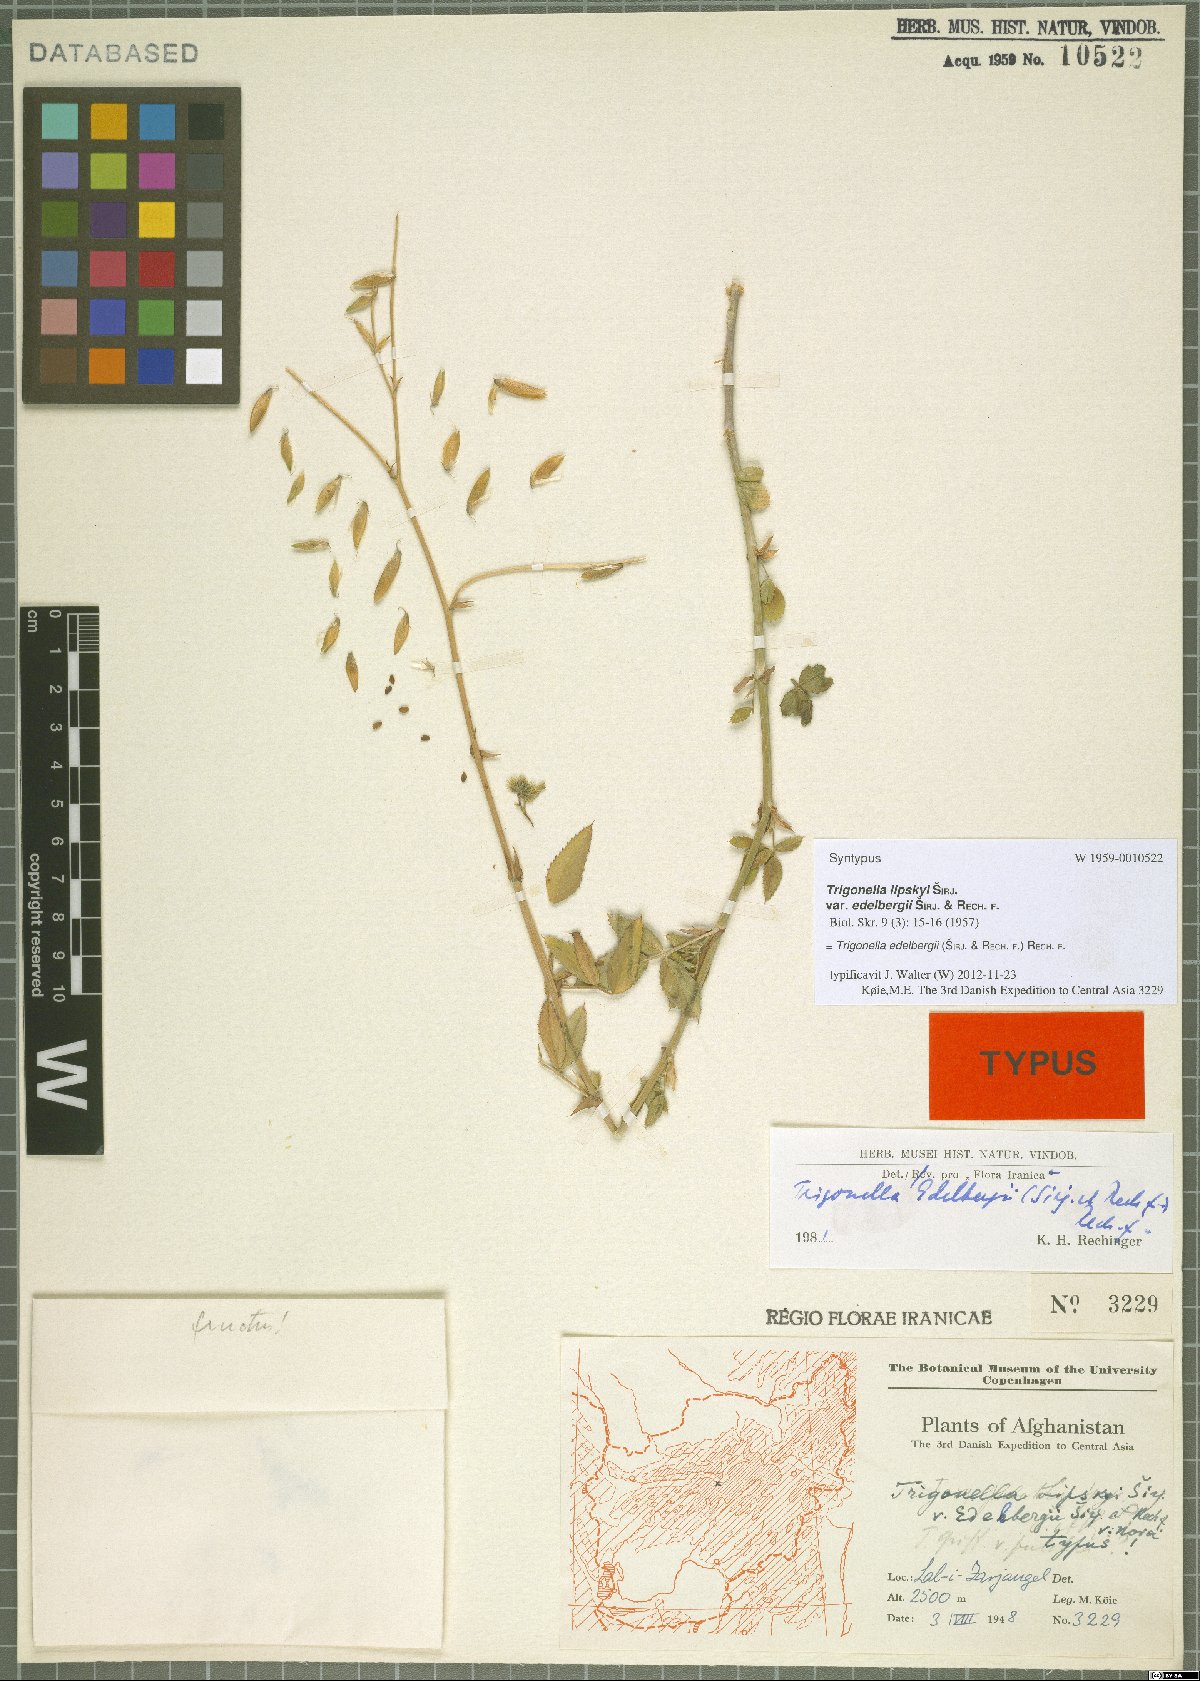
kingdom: Plantae
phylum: Tracheophyta
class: Magnoliopsida
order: Fabales
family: Fabaceae
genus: Trigonella
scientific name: Trigonella edelbergii
